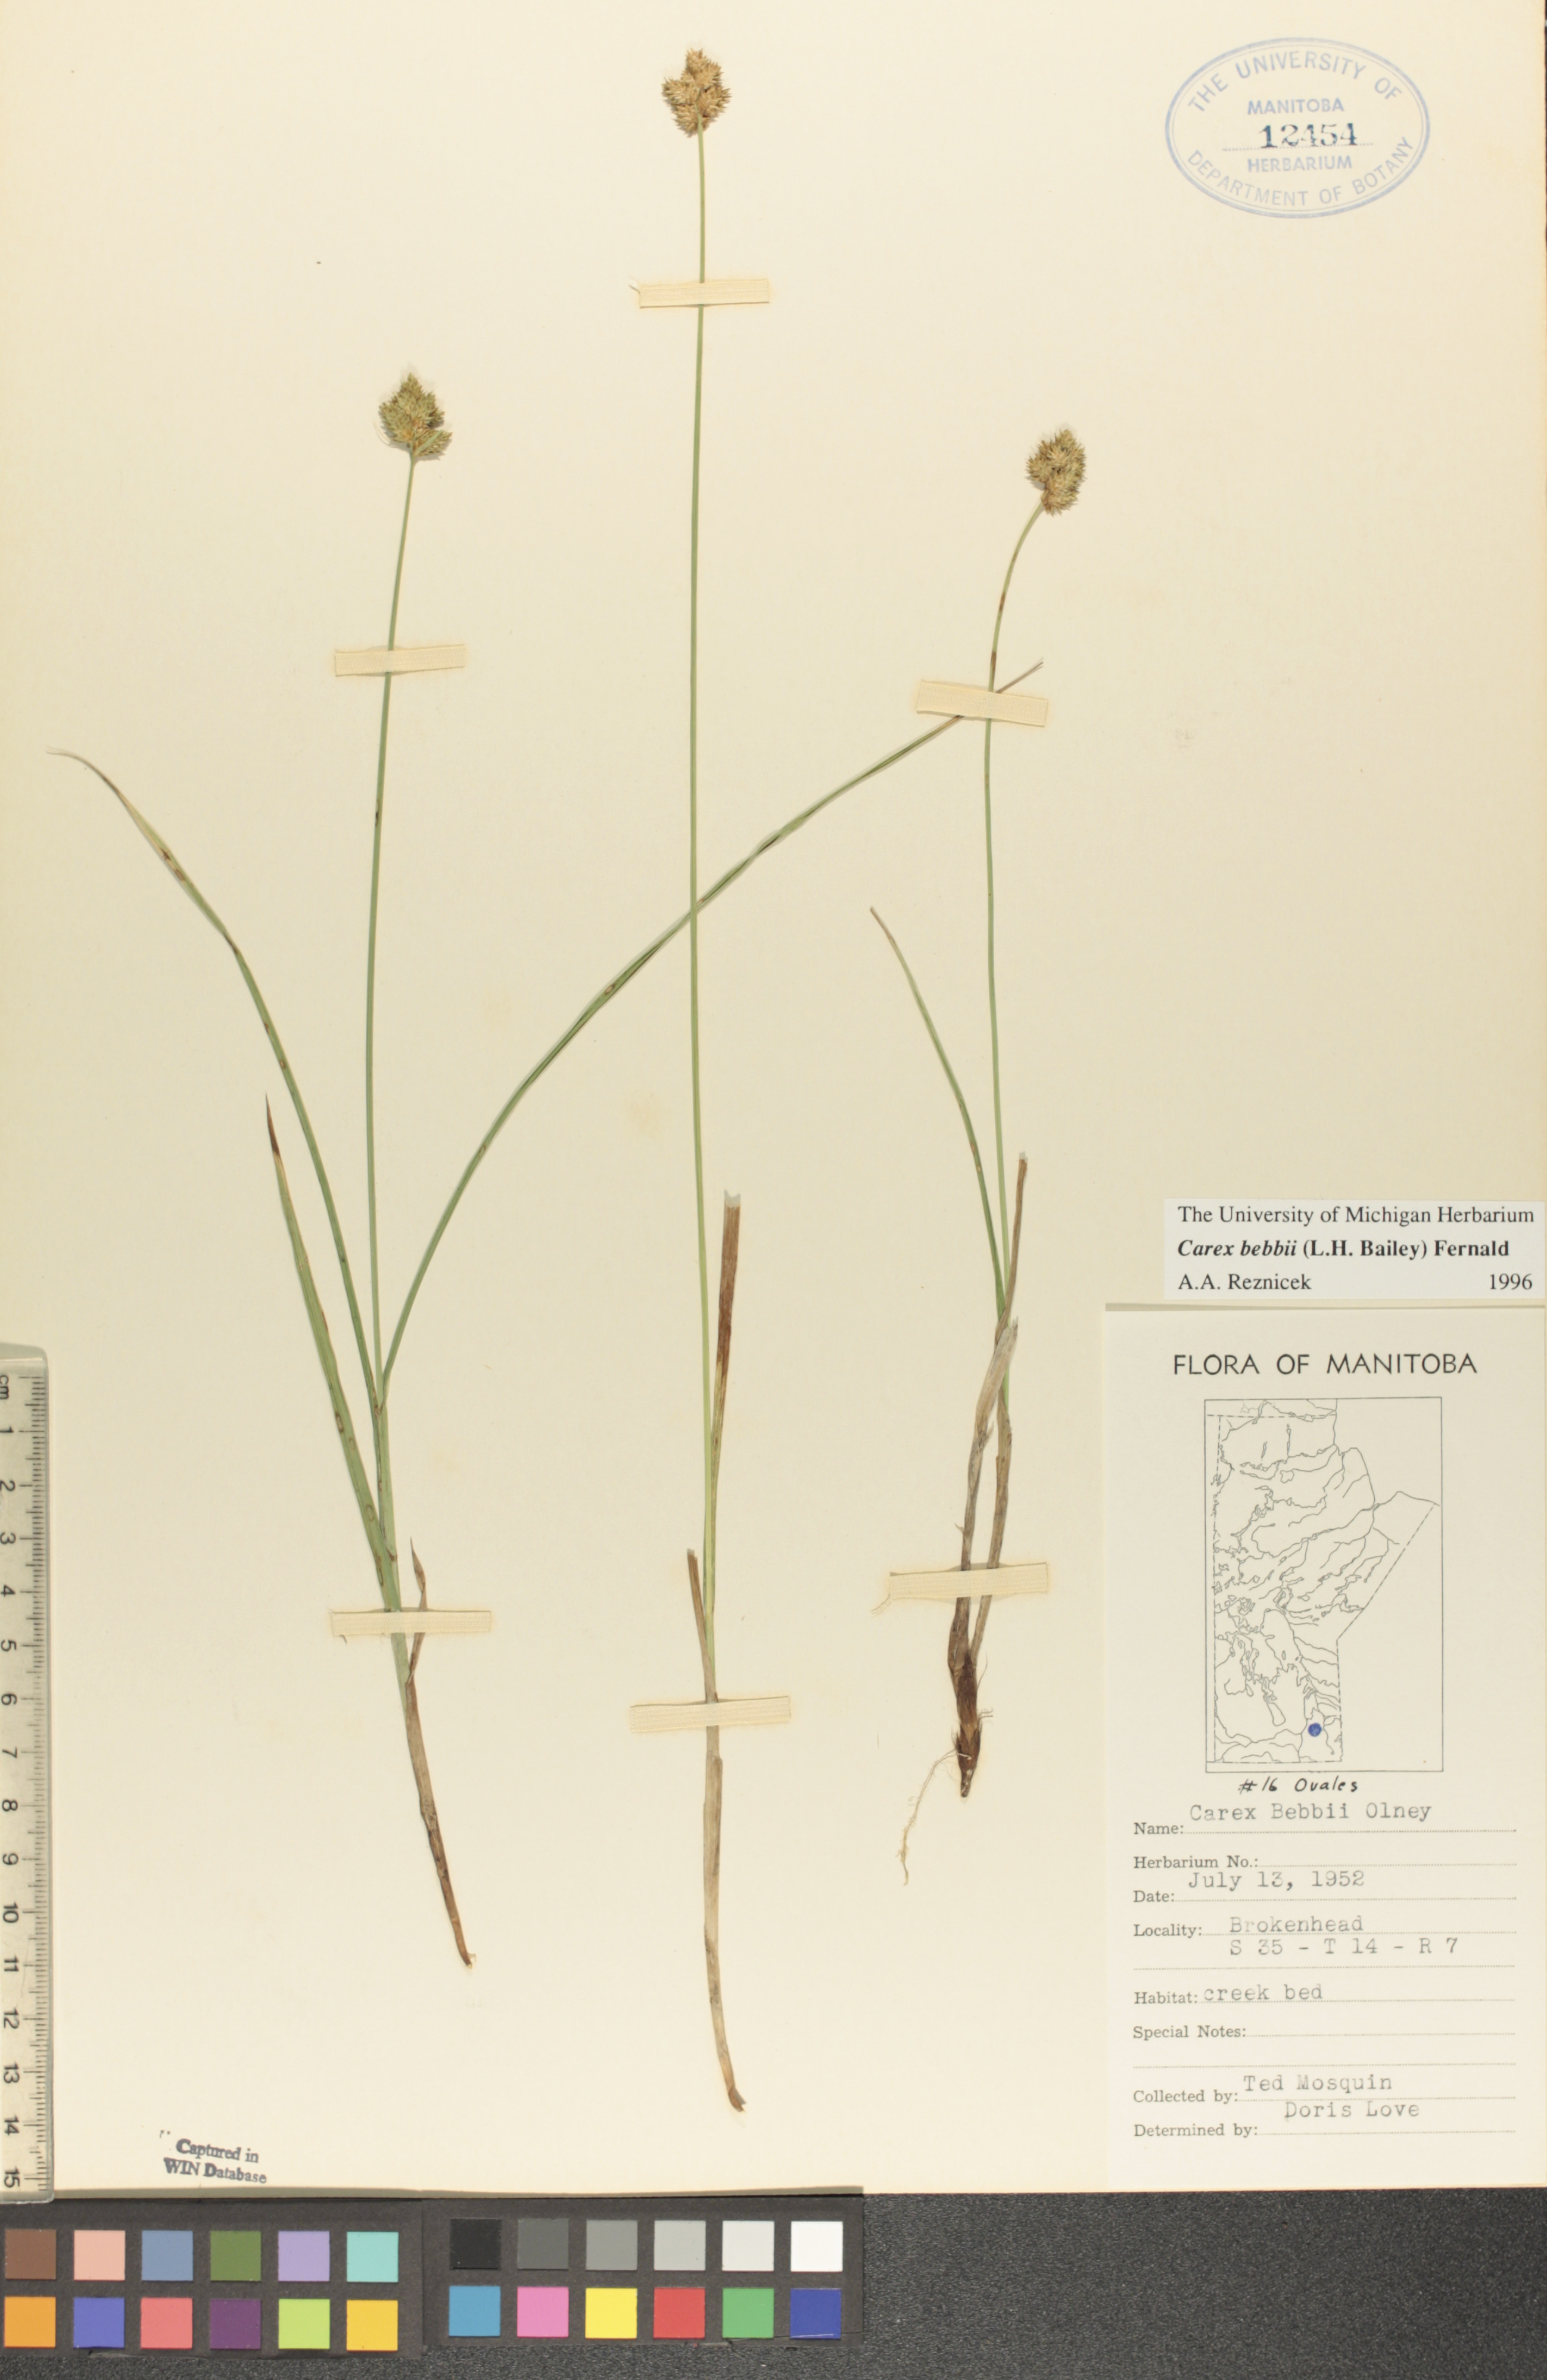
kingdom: Plantae
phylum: Tracheophyta
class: Liliopsida
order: Poales
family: Cyperaceae
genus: Carex
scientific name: Carex bebbii
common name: Bebb's sedge
